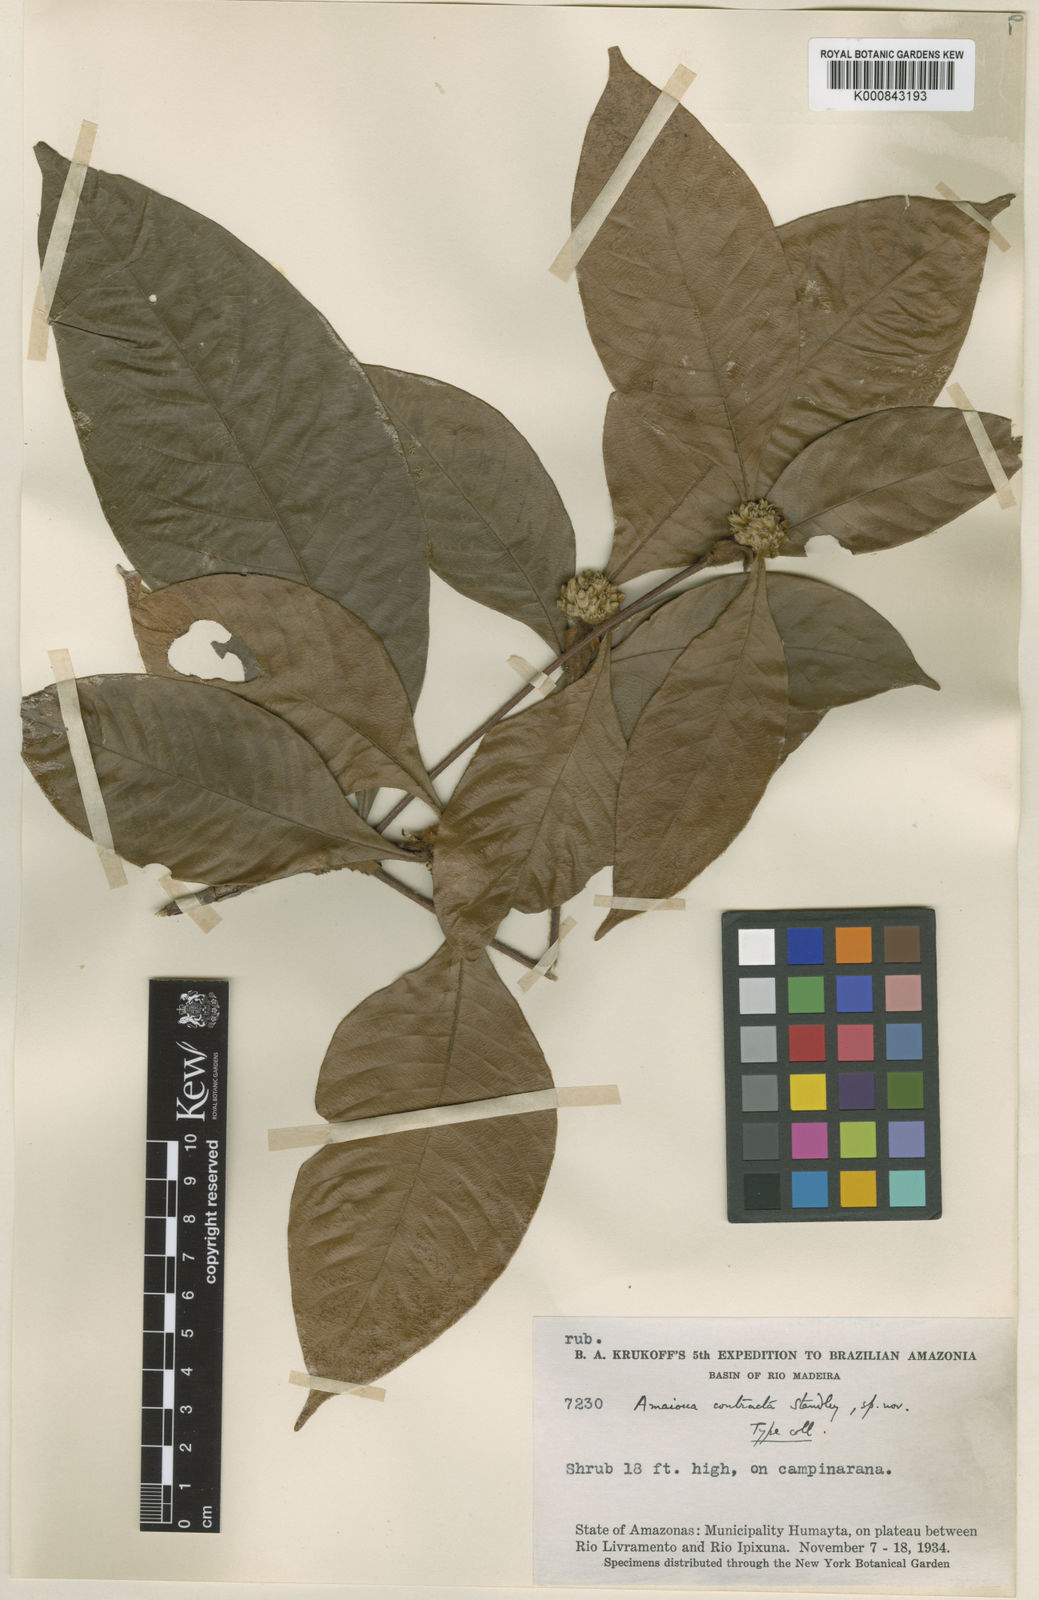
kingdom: Plantae
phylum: Tracheophyta
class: Magnoliopsida
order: Gentianales
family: Rubiaceae
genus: Amaioua
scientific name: Amaioua contracta
